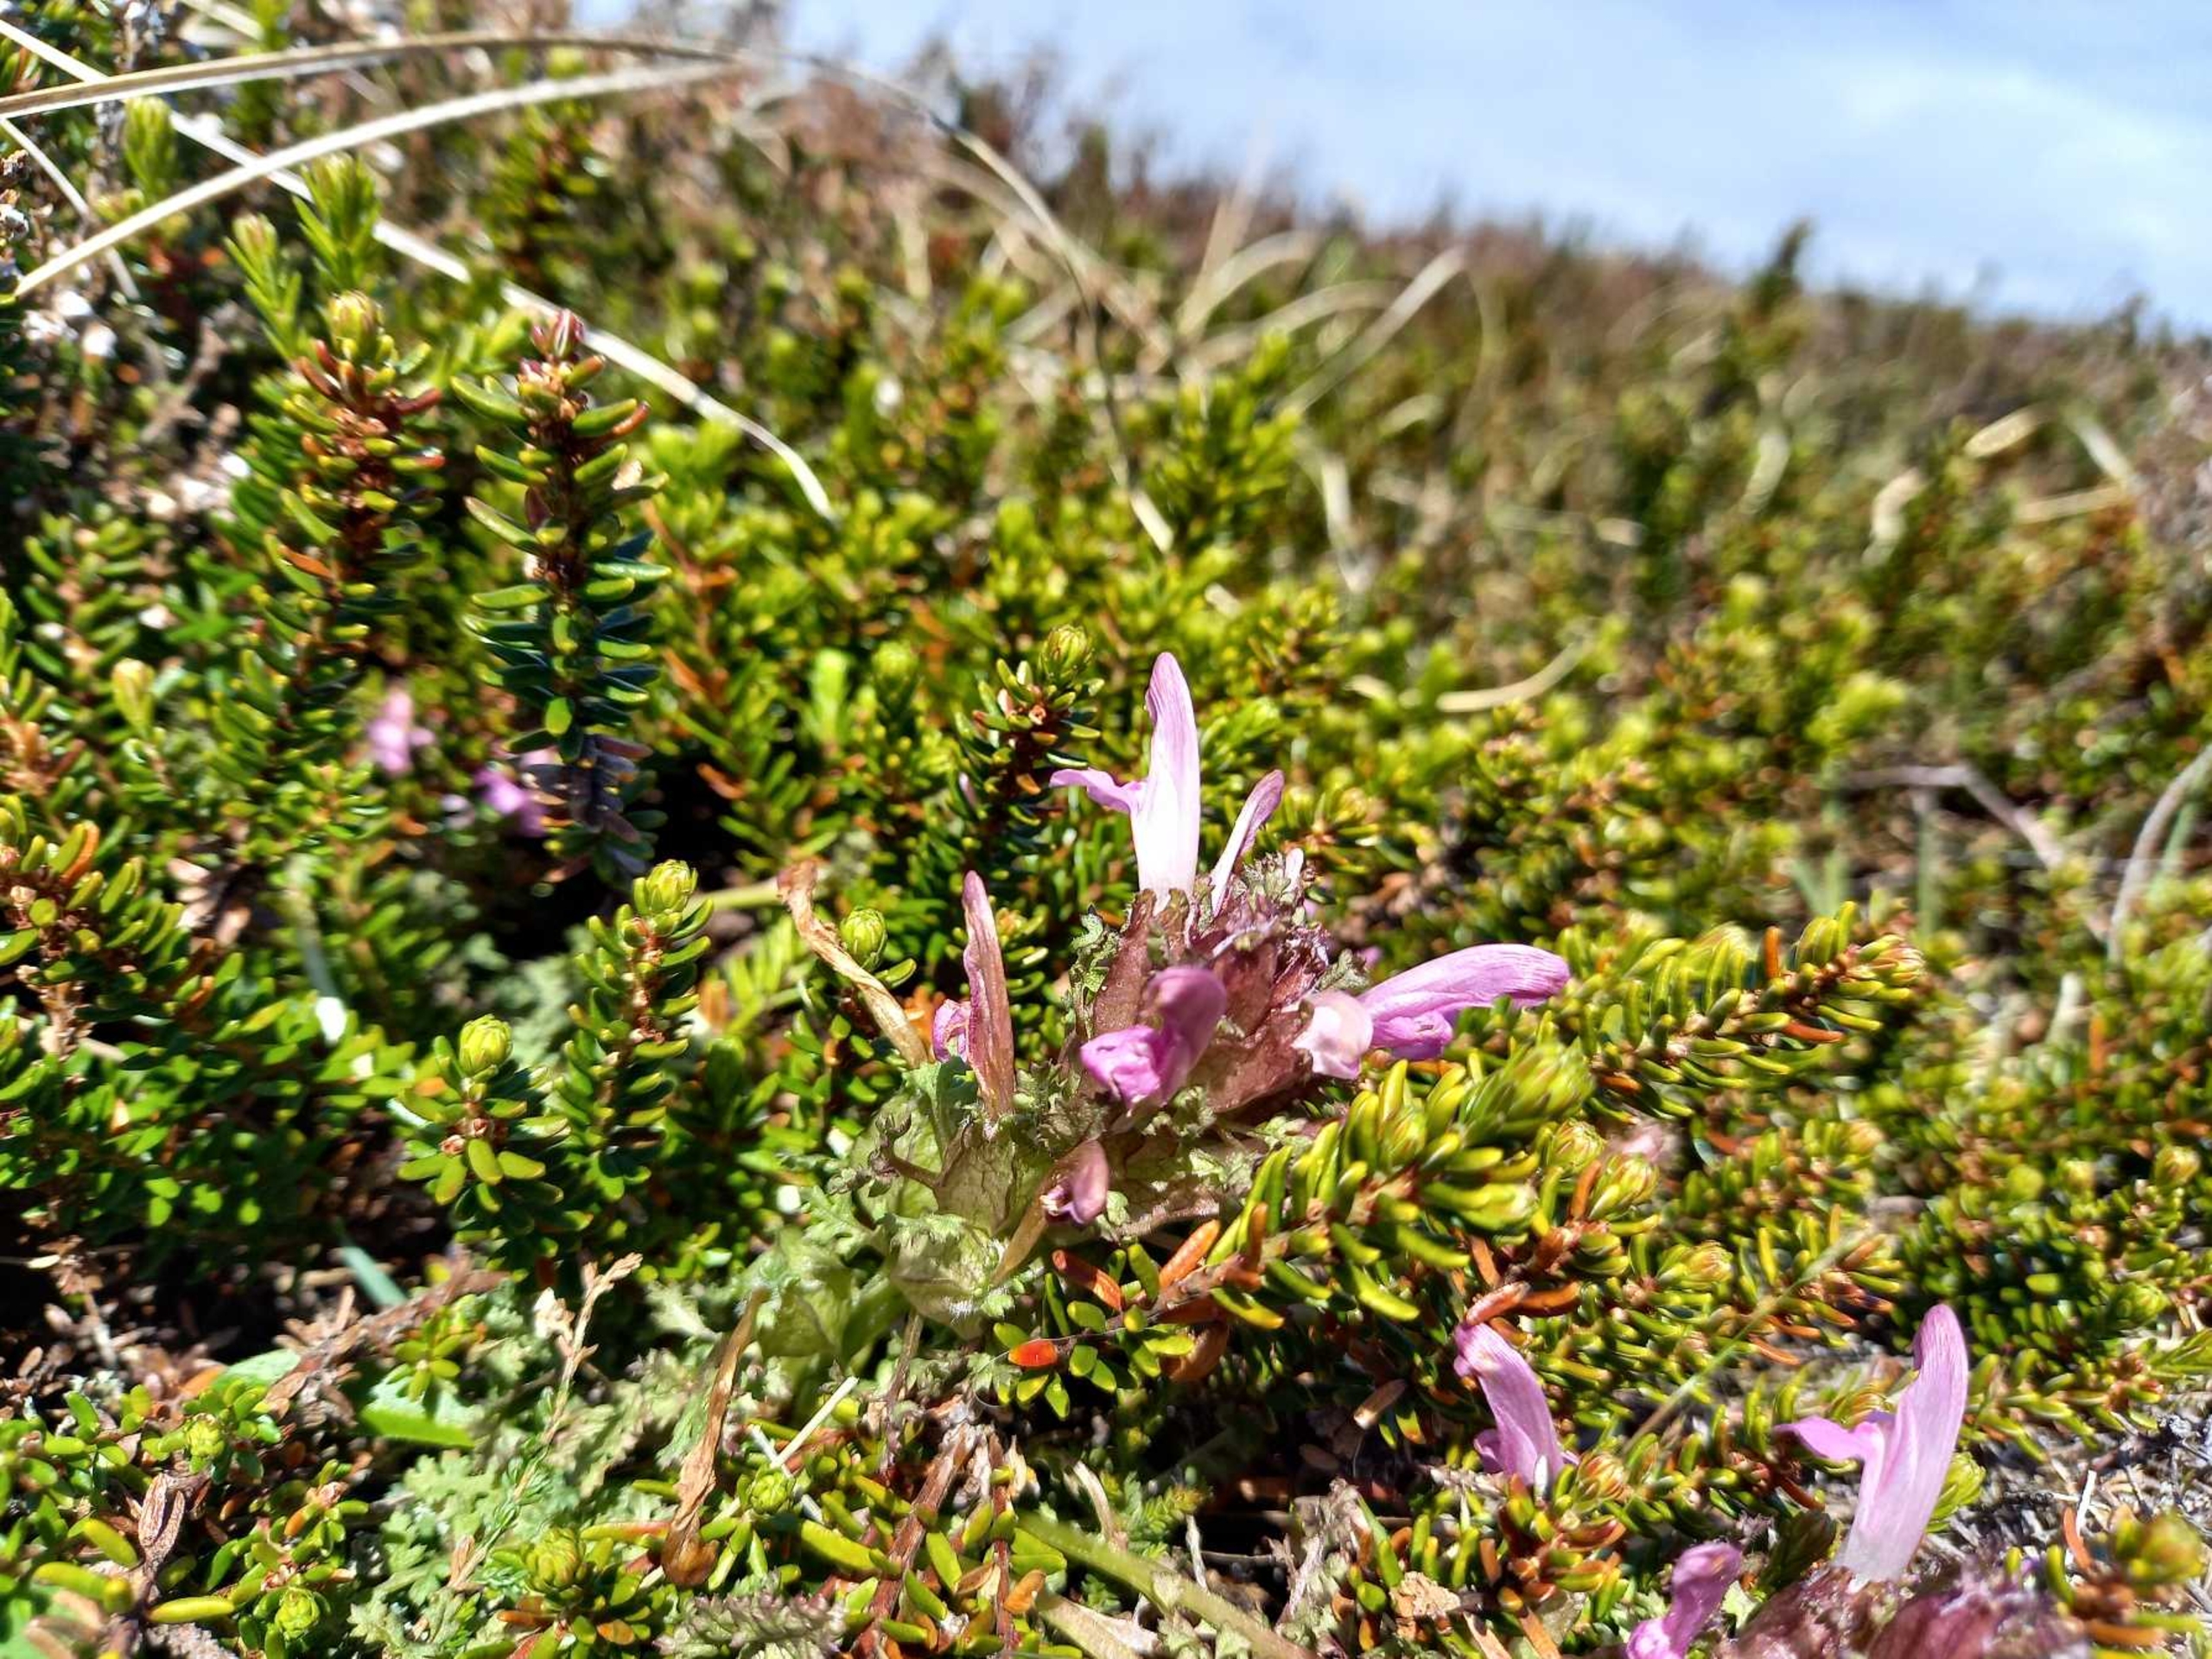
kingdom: Plantae
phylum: Tracheophyta
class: Magnoliopsida
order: Lamiales
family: Orobanchaceae
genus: Pedicularis
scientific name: Pedicularis sylvatica
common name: Mose-troldurt
